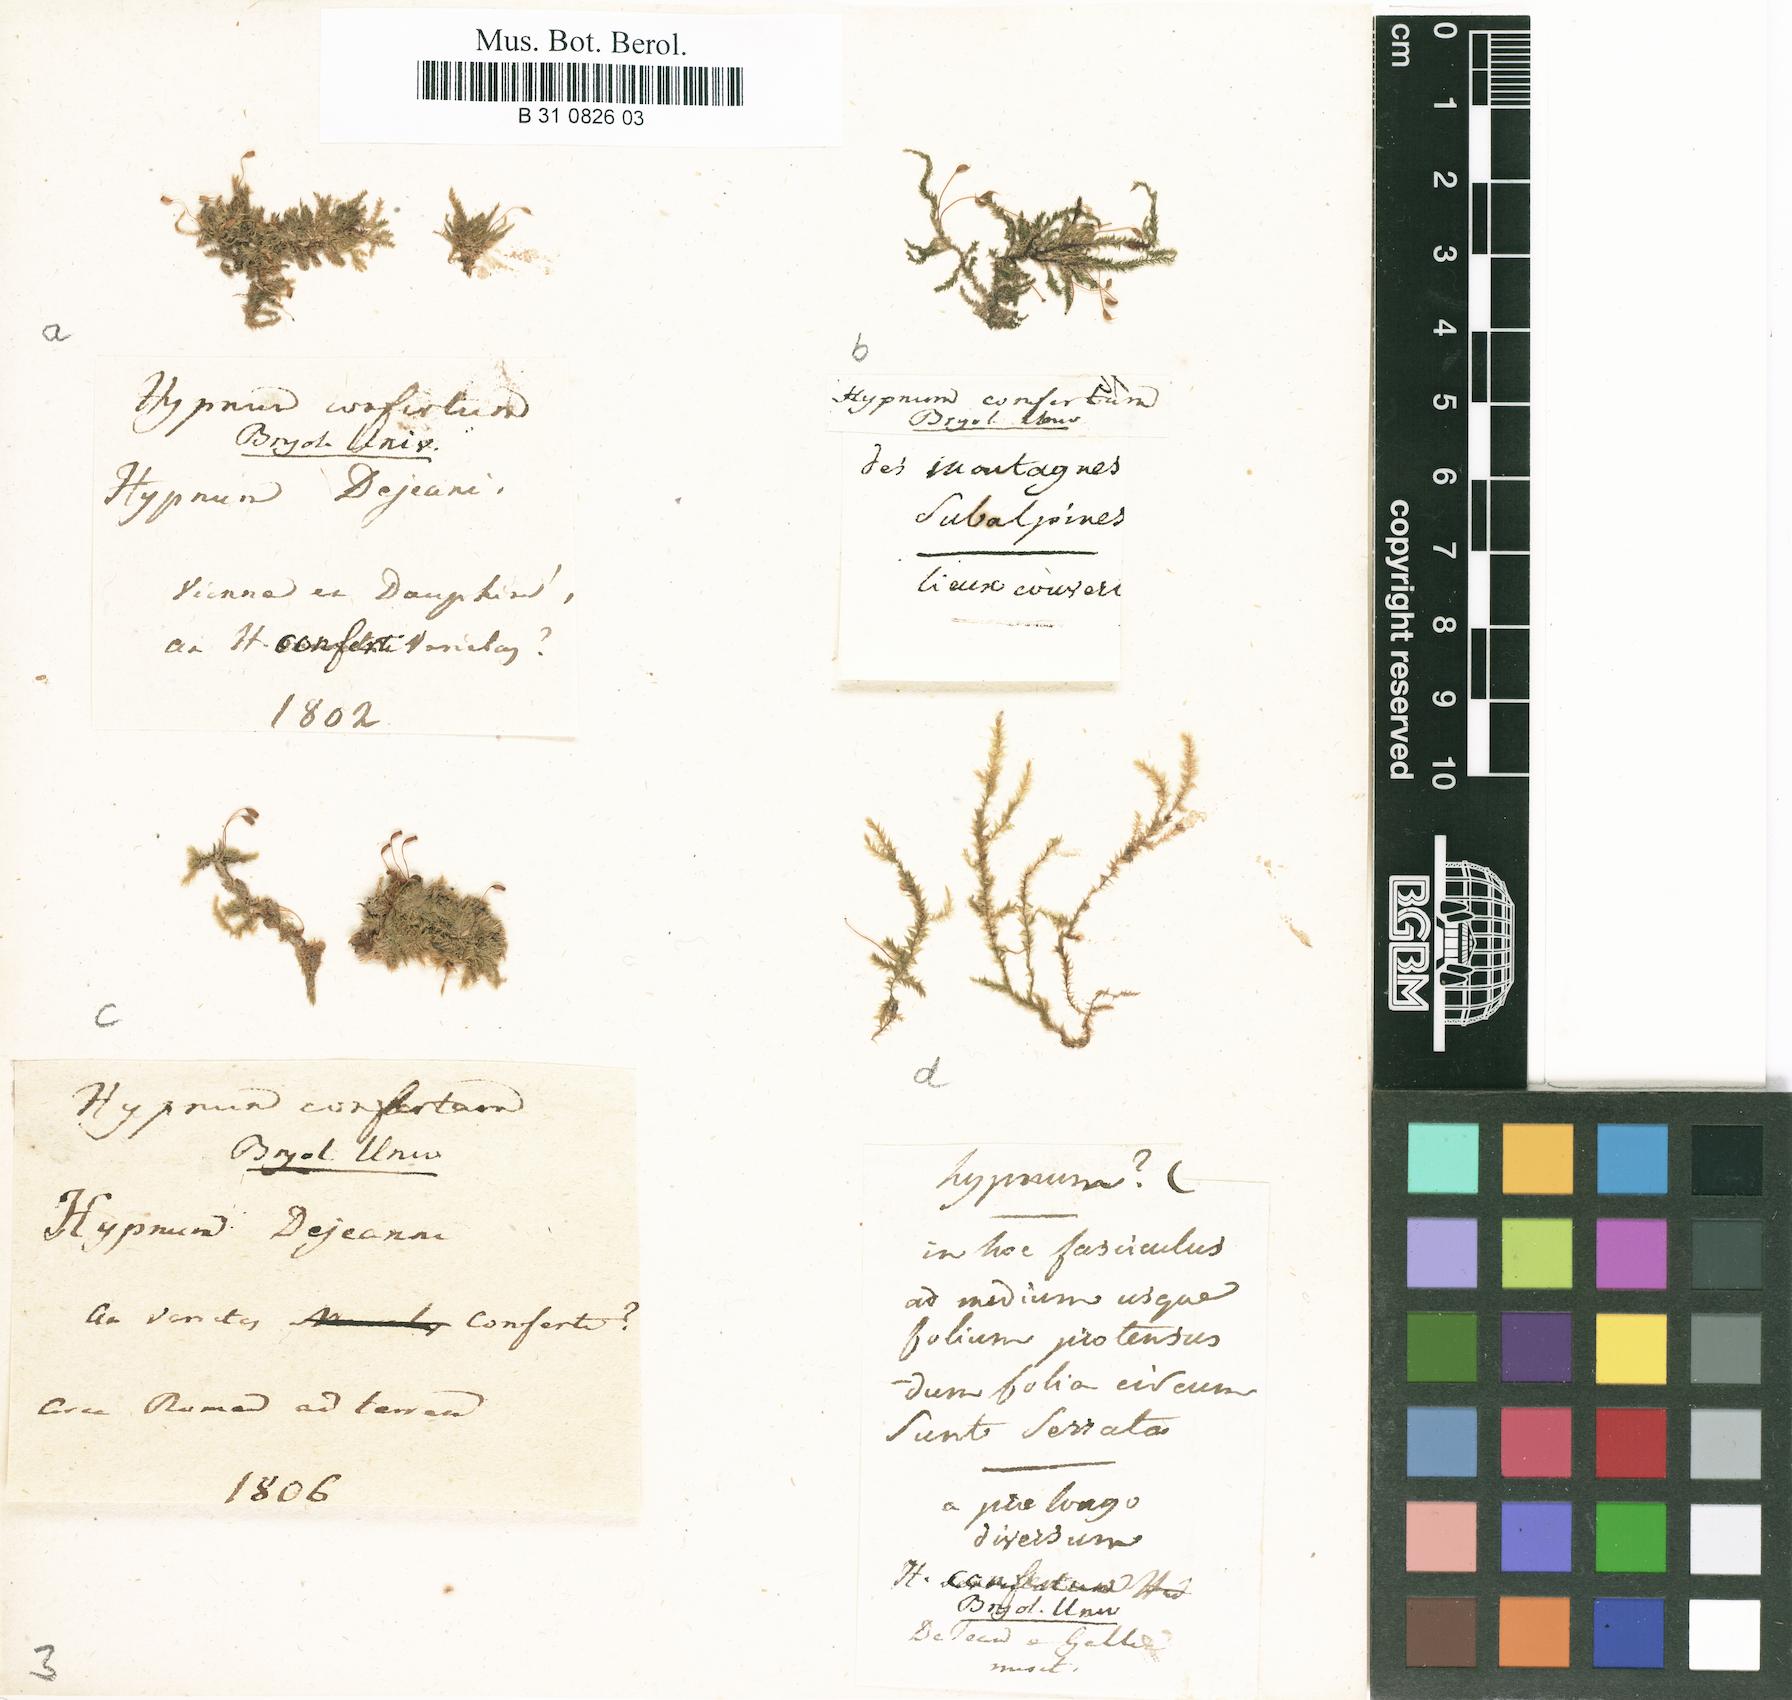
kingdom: Plantae
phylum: Bryophyta
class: Bryopsida
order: Hypnales
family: Brachytheciaceae
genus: Rhynchostegium
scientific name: Rhynchostegium confertum
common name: Clustered feather-moss
